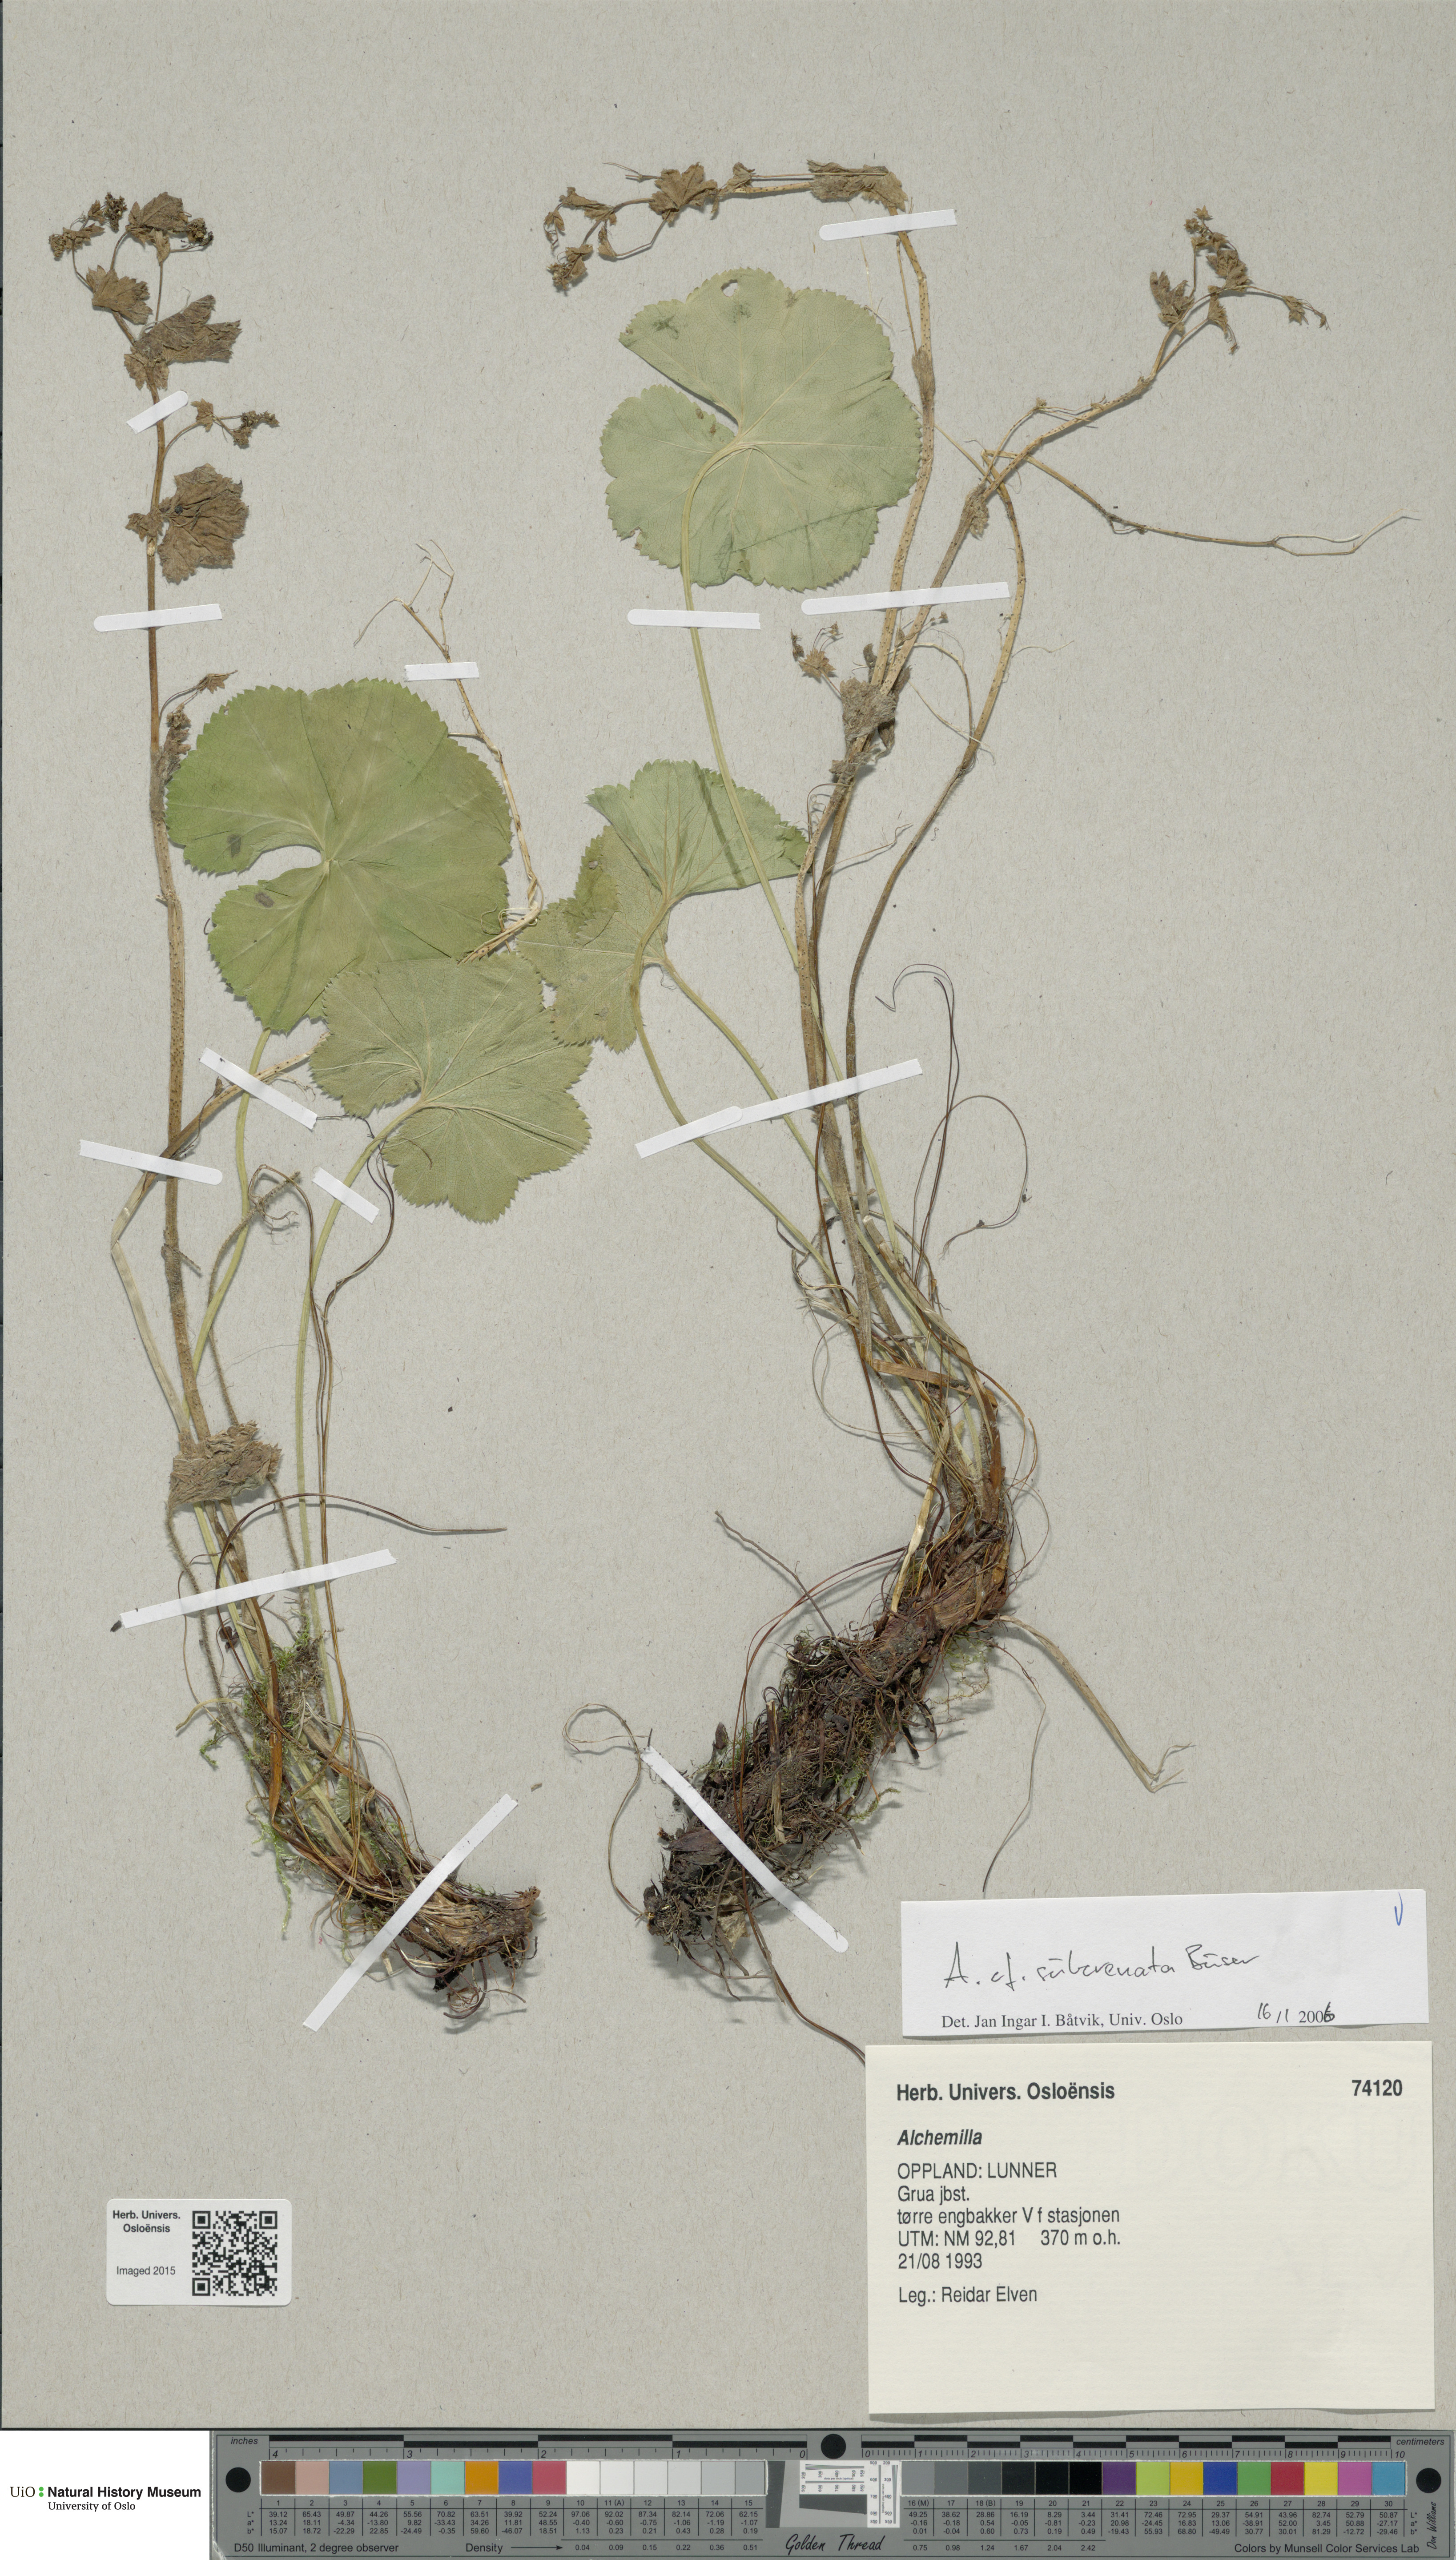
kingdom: Plantae
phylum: Tracheophyta
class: Magnoliopsida
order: Rosales
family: Rosaceae
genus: Alchemilla
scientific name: Alchemilla subcrenata
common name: Broadtooth lady's mantle
